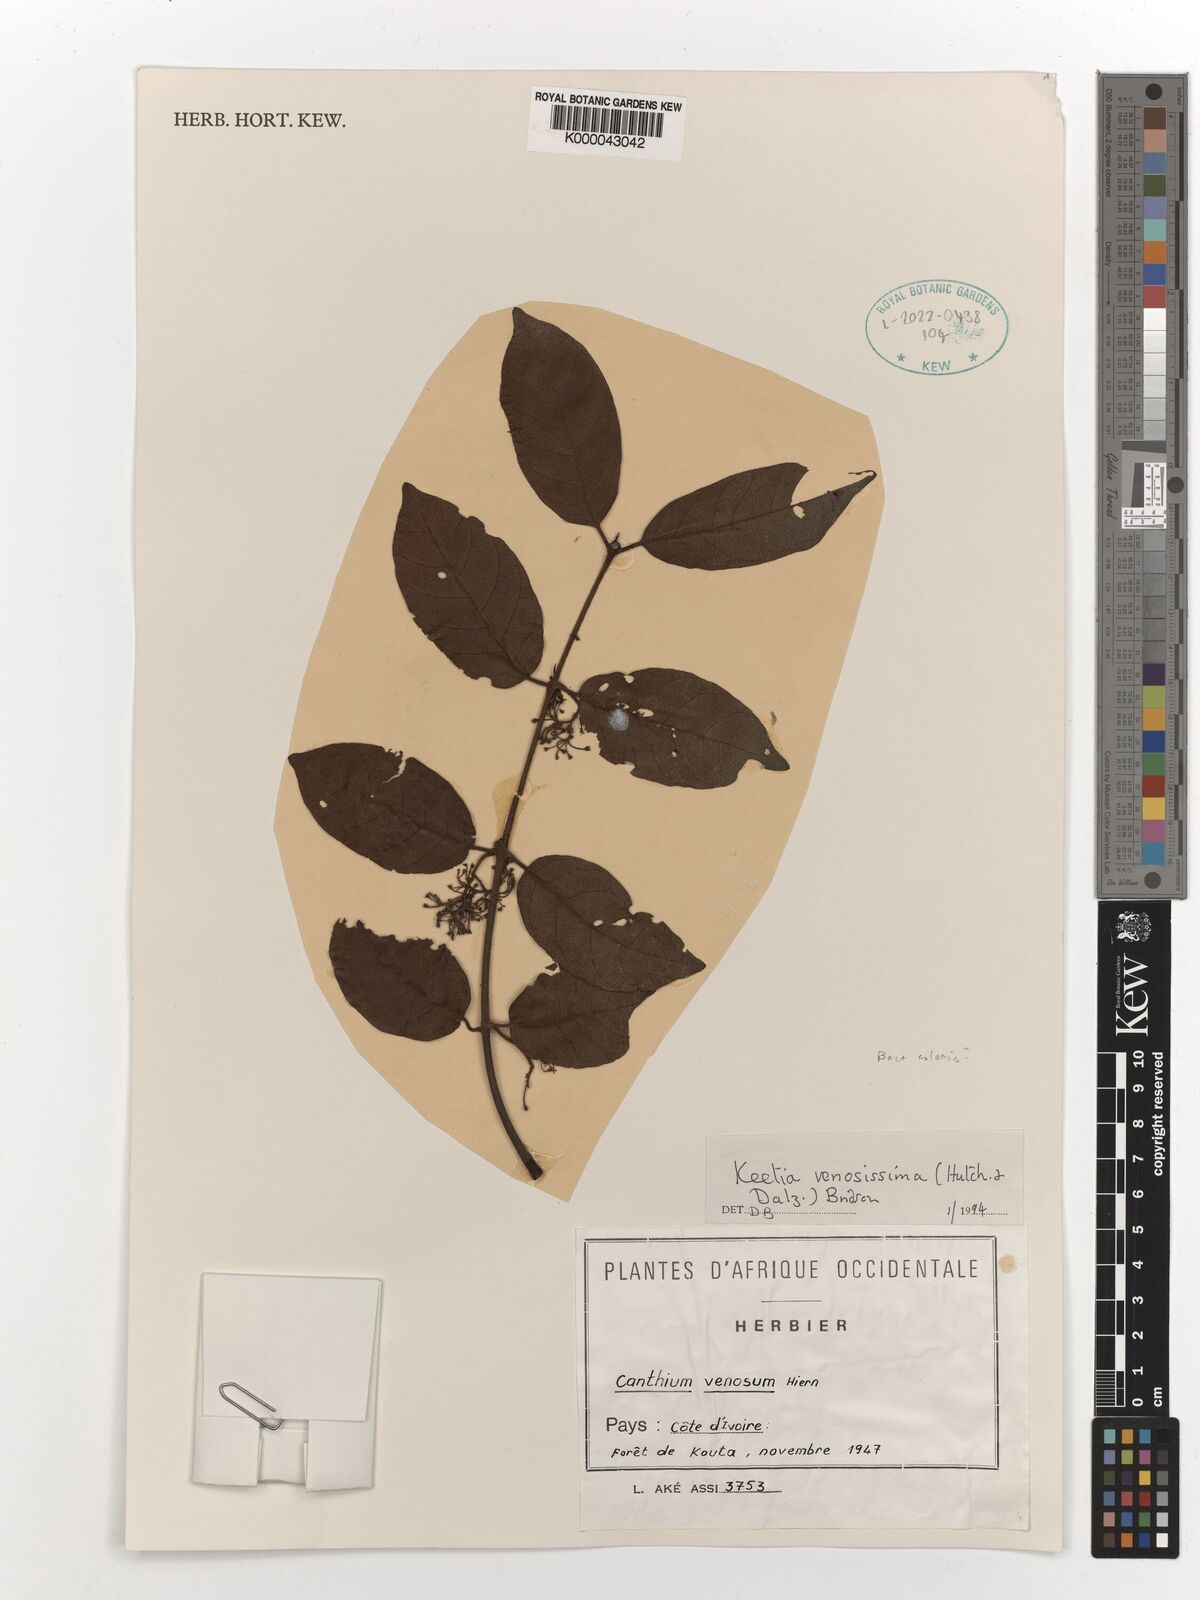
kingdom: Plantae
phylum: Tracheophyta
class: Magnoliopsida
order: Gentianales
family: Rubiaceae
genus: Keetia
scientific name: Keetia venosissima
